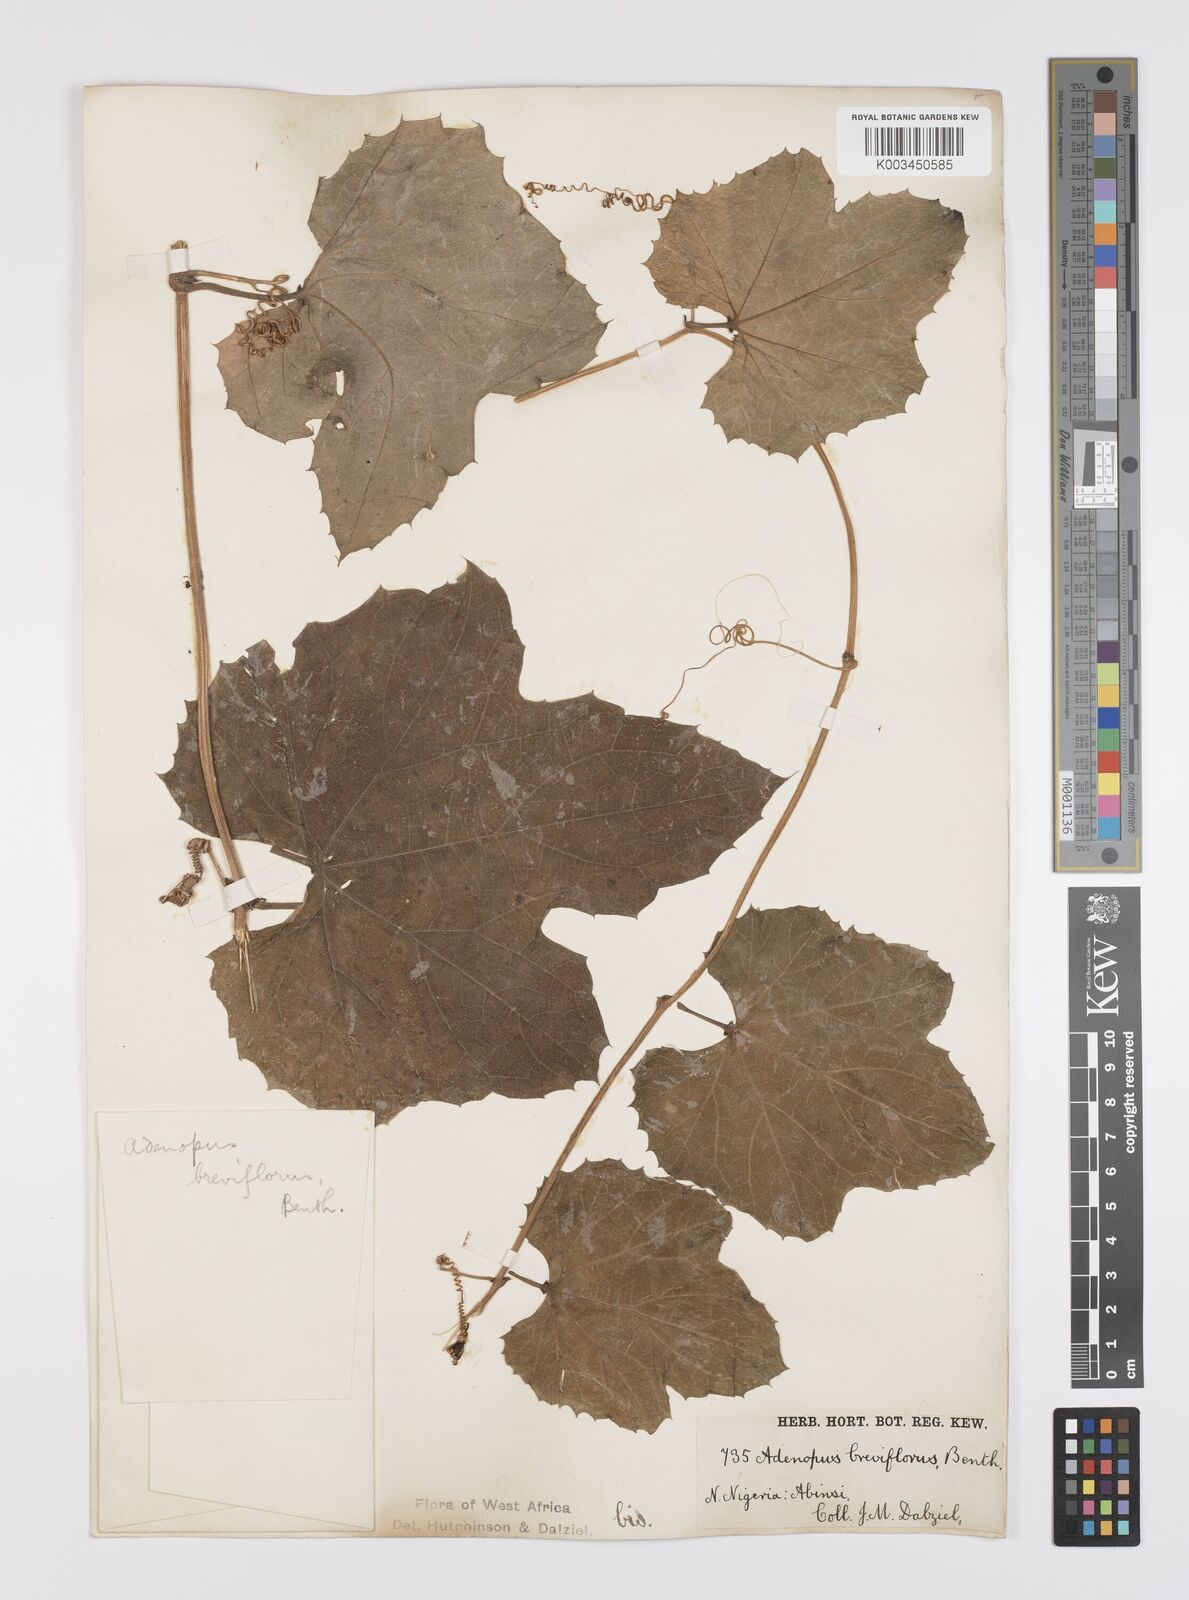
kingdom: Plantae
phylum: Tracheophyta
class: Magnoliopsida
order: Cucurbitales
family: Cucurbitaceae
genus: Lagenaria
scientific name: Lagenaria breviflora
